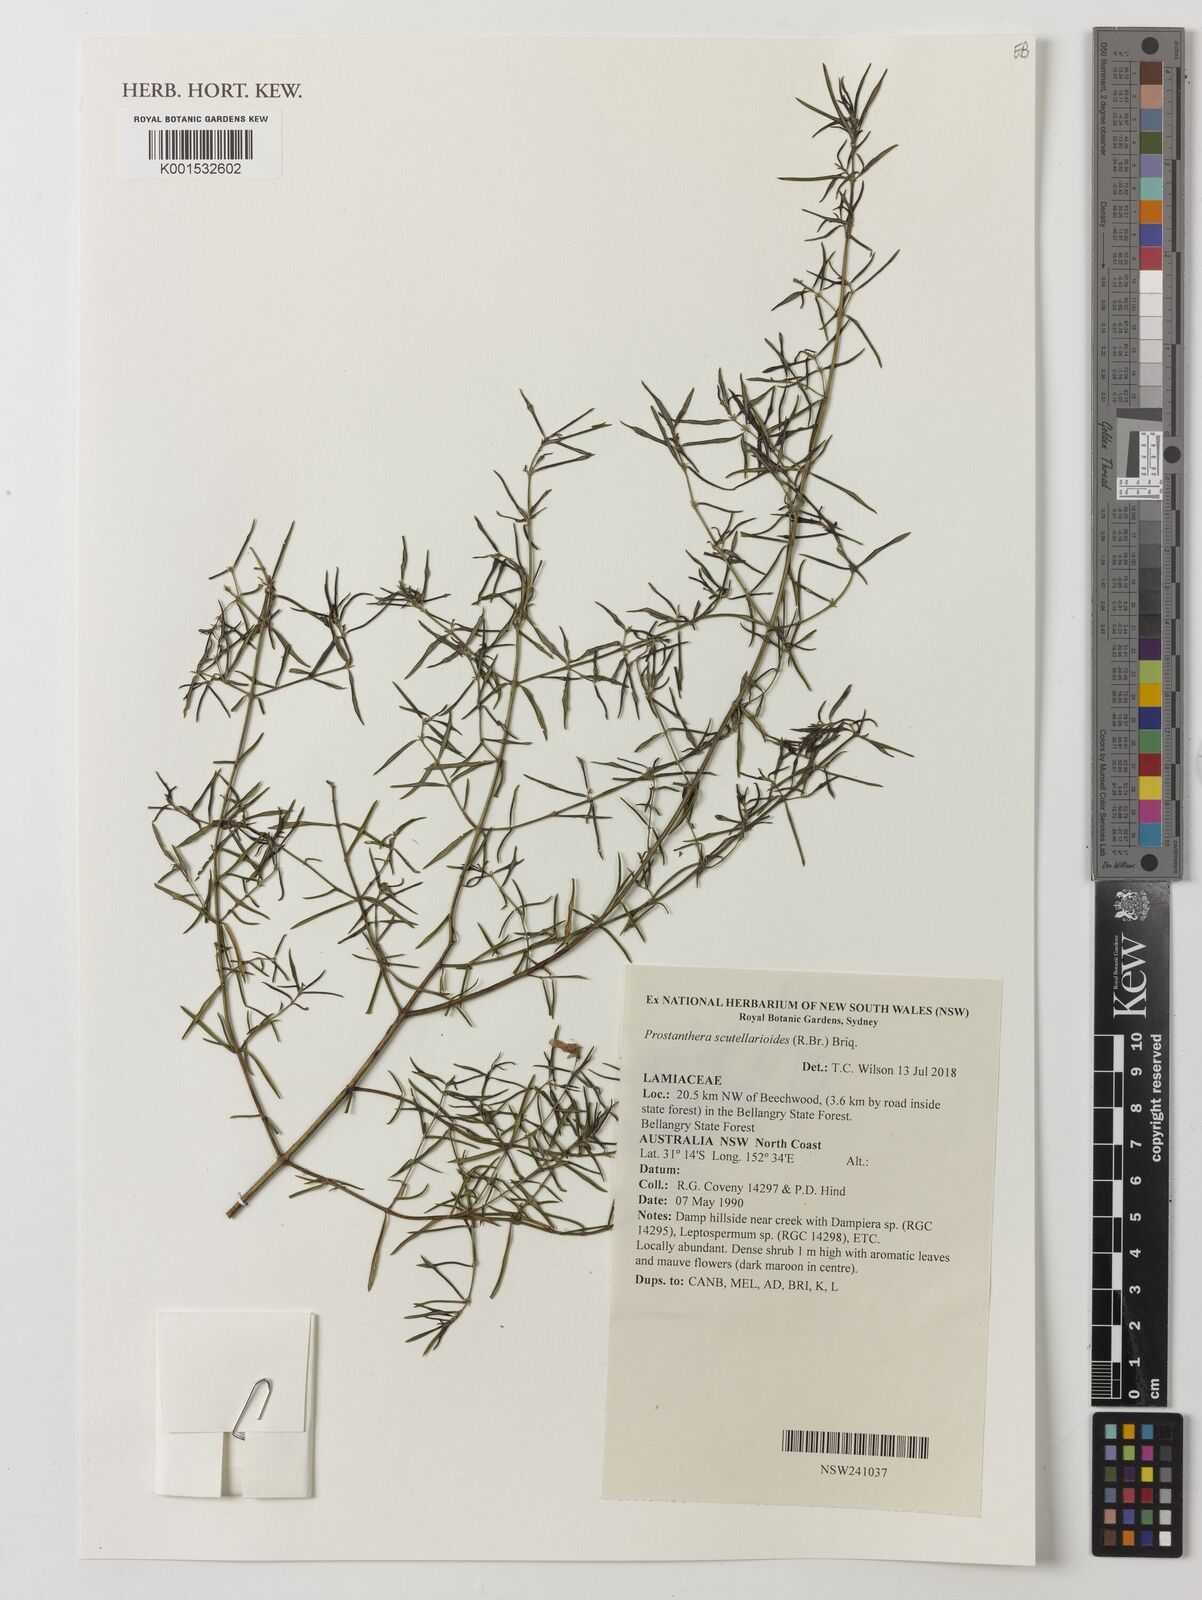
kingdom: Plantae
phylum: Tracheophyta
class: Magnoliopsida
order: Lamiales
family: Lamiaceae
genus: Prostanthera
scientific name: Prostanthera scutellarioides
